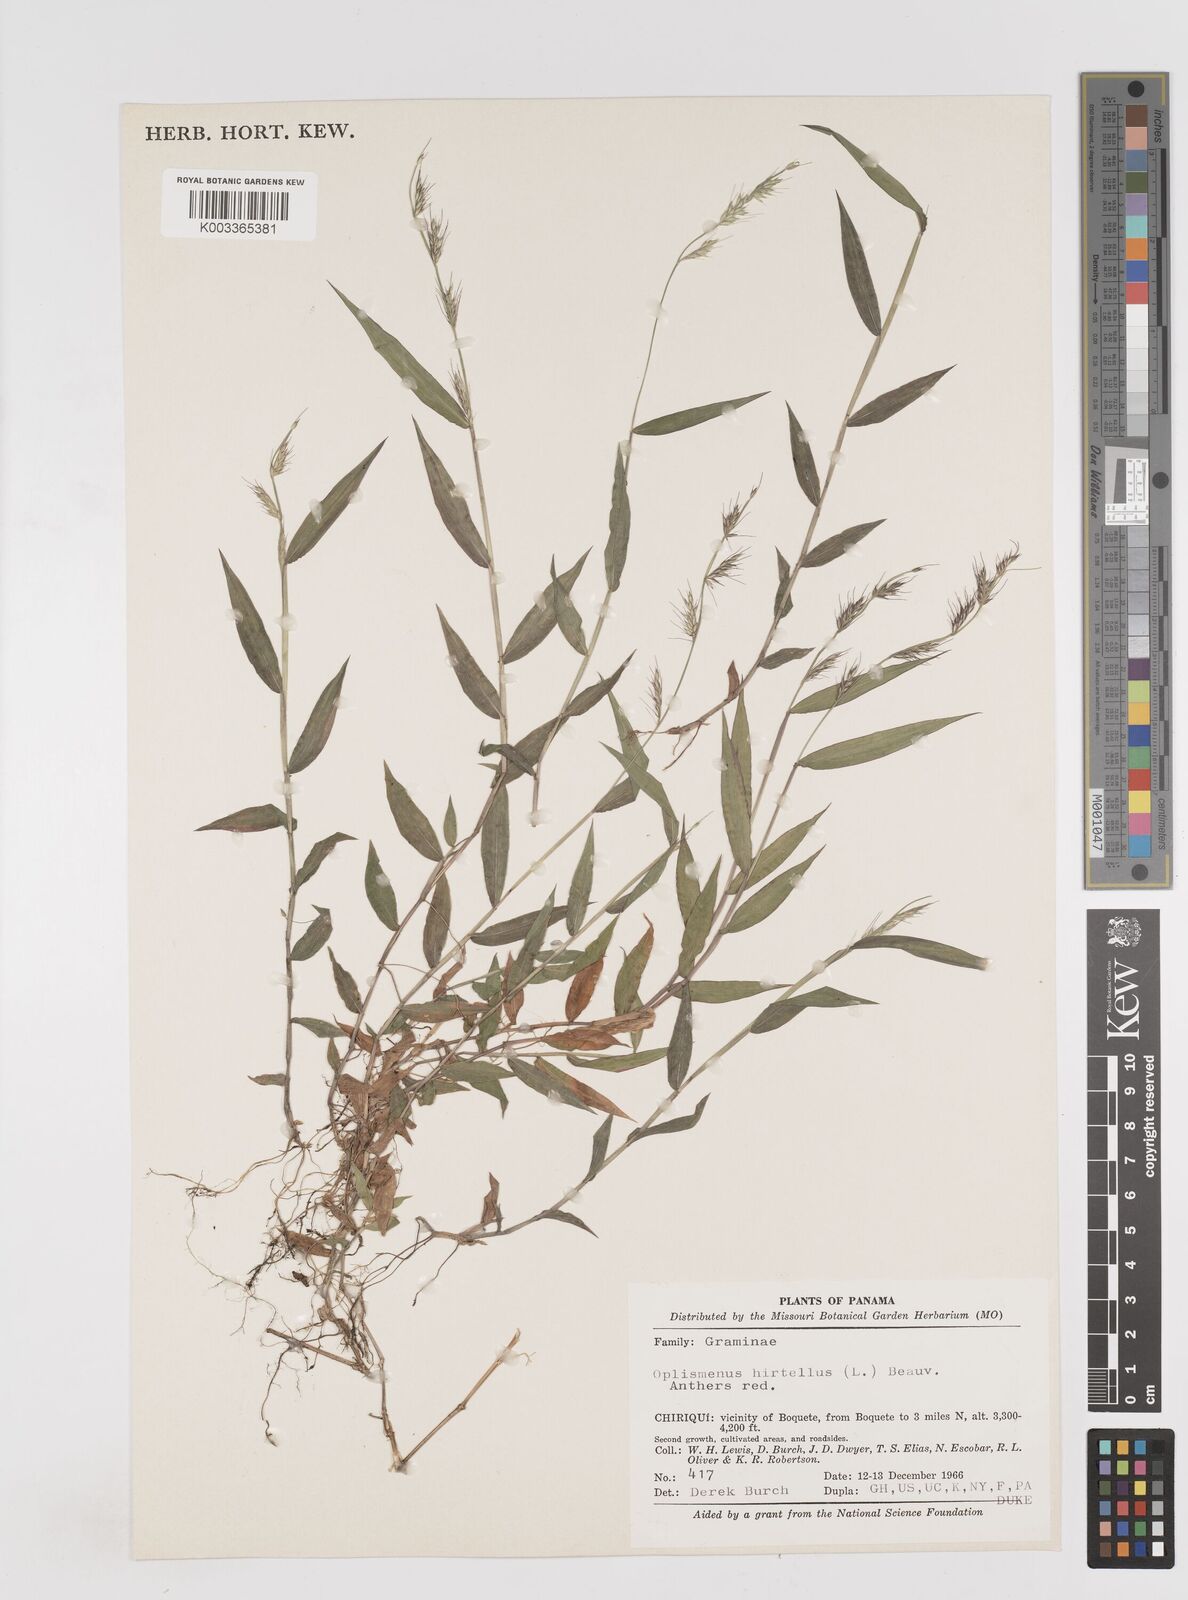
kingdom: Plantae
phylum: Tracheophyta
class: Liliopsida
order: Poales
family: Poaceae
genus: Oplismenus
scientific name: Oplismenus hirtellus
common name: Basketgrass
